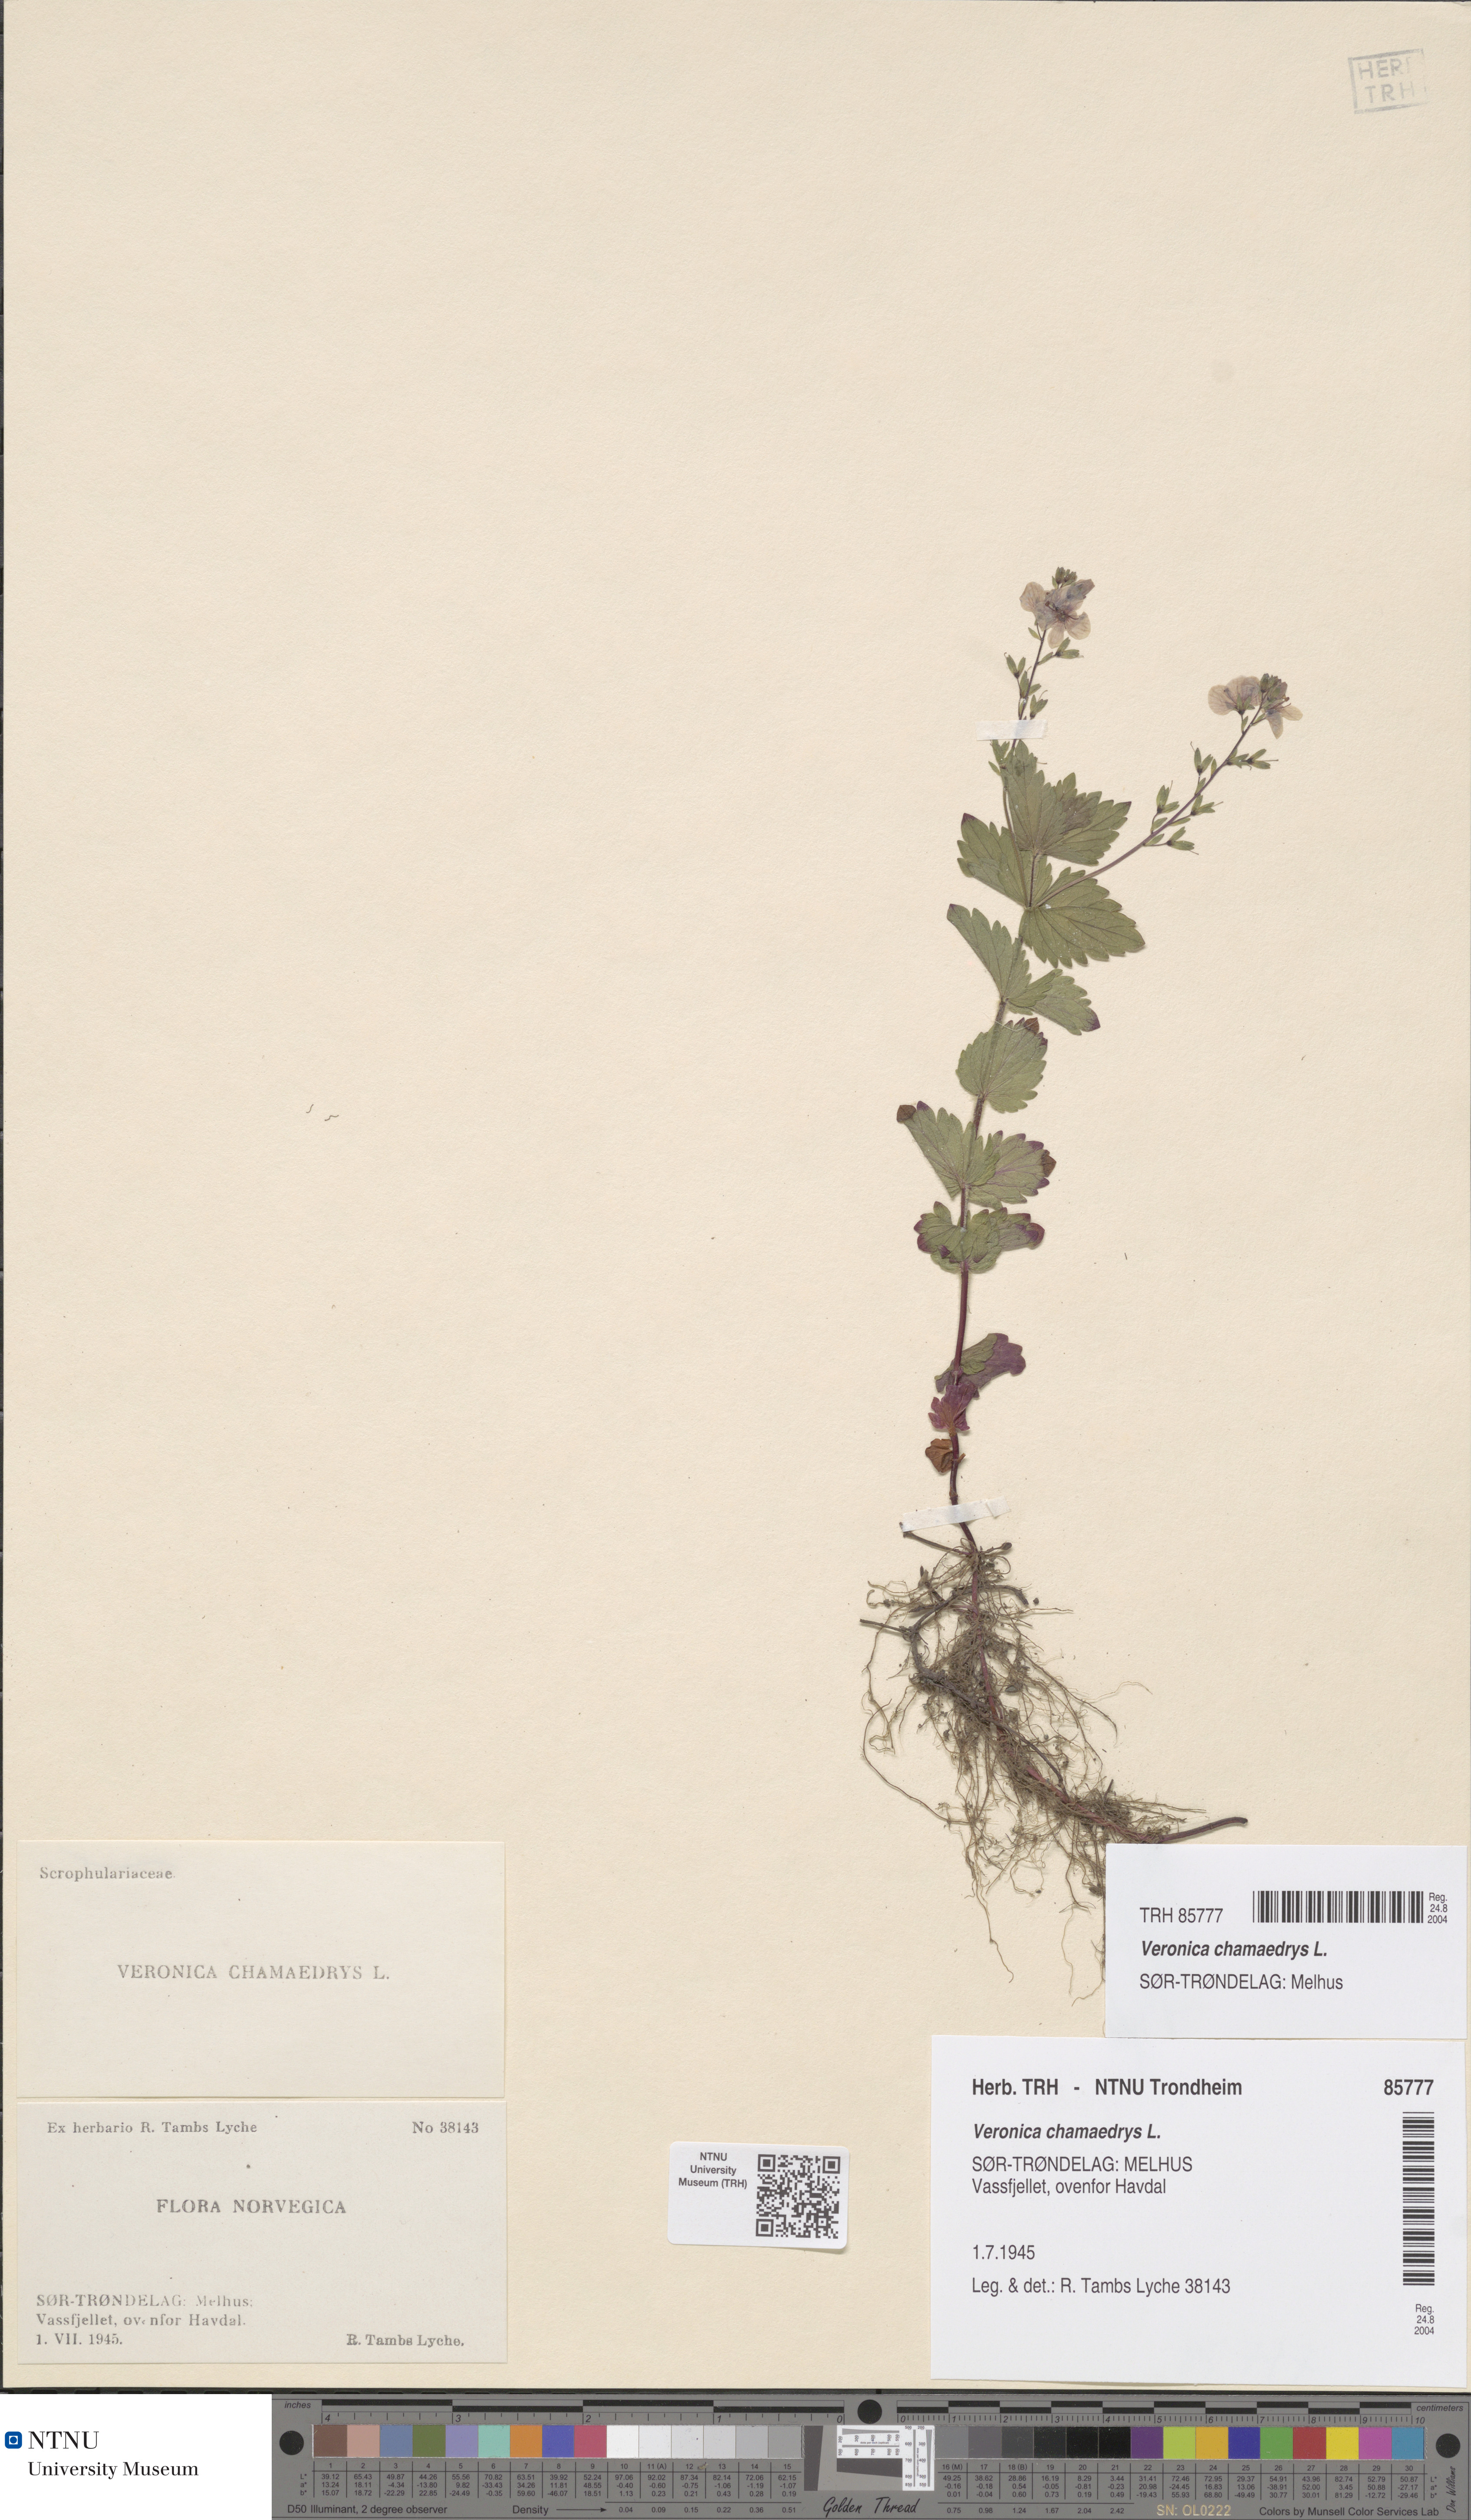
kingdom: Plantae
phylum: Tracheophyta
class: Magnoliopsida
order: Lamiales
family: Plantaginaceae
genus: Veronica
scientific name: Veronica chamaedrys
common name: Germander speedwell
